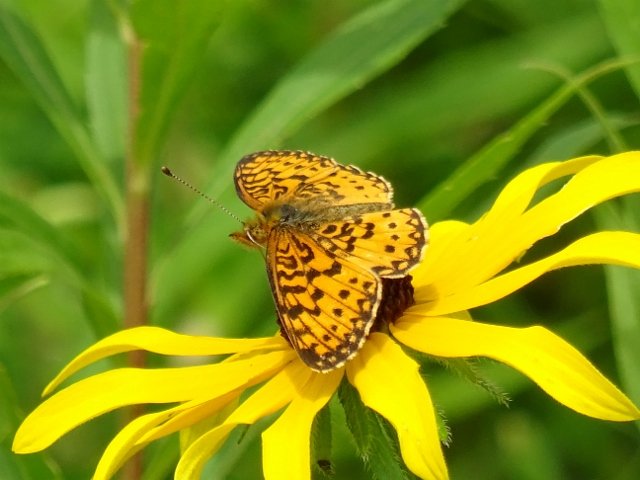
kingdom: Animalia
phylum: Arthropoda
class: Insecta
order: Lepidoptera
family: Nymphalidae
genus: Boloria
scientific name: Boloria selene
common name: Silver-bordered Fritillary
